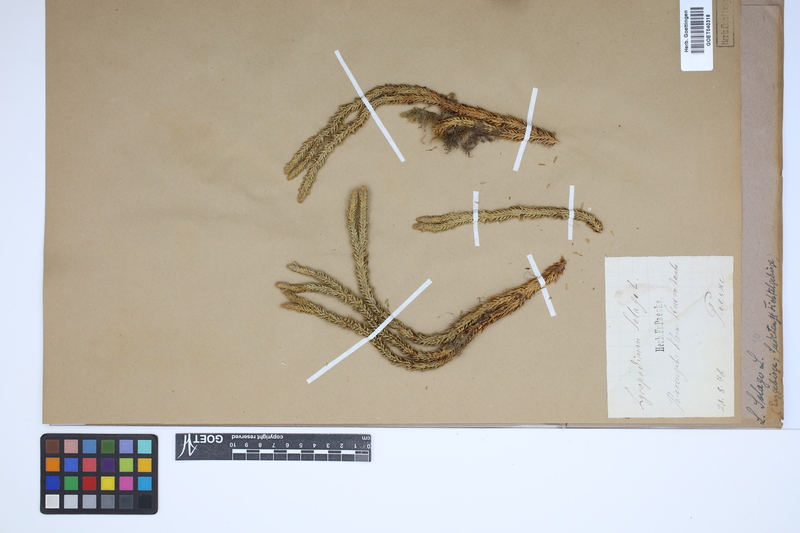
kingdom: Plantae
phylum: Tracheophyta
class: Lycopodiopsida
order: Lycopodiales
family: Lycopodiaceae
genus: Huperzia
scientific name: Huperzia selago
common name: Northern firmoss
